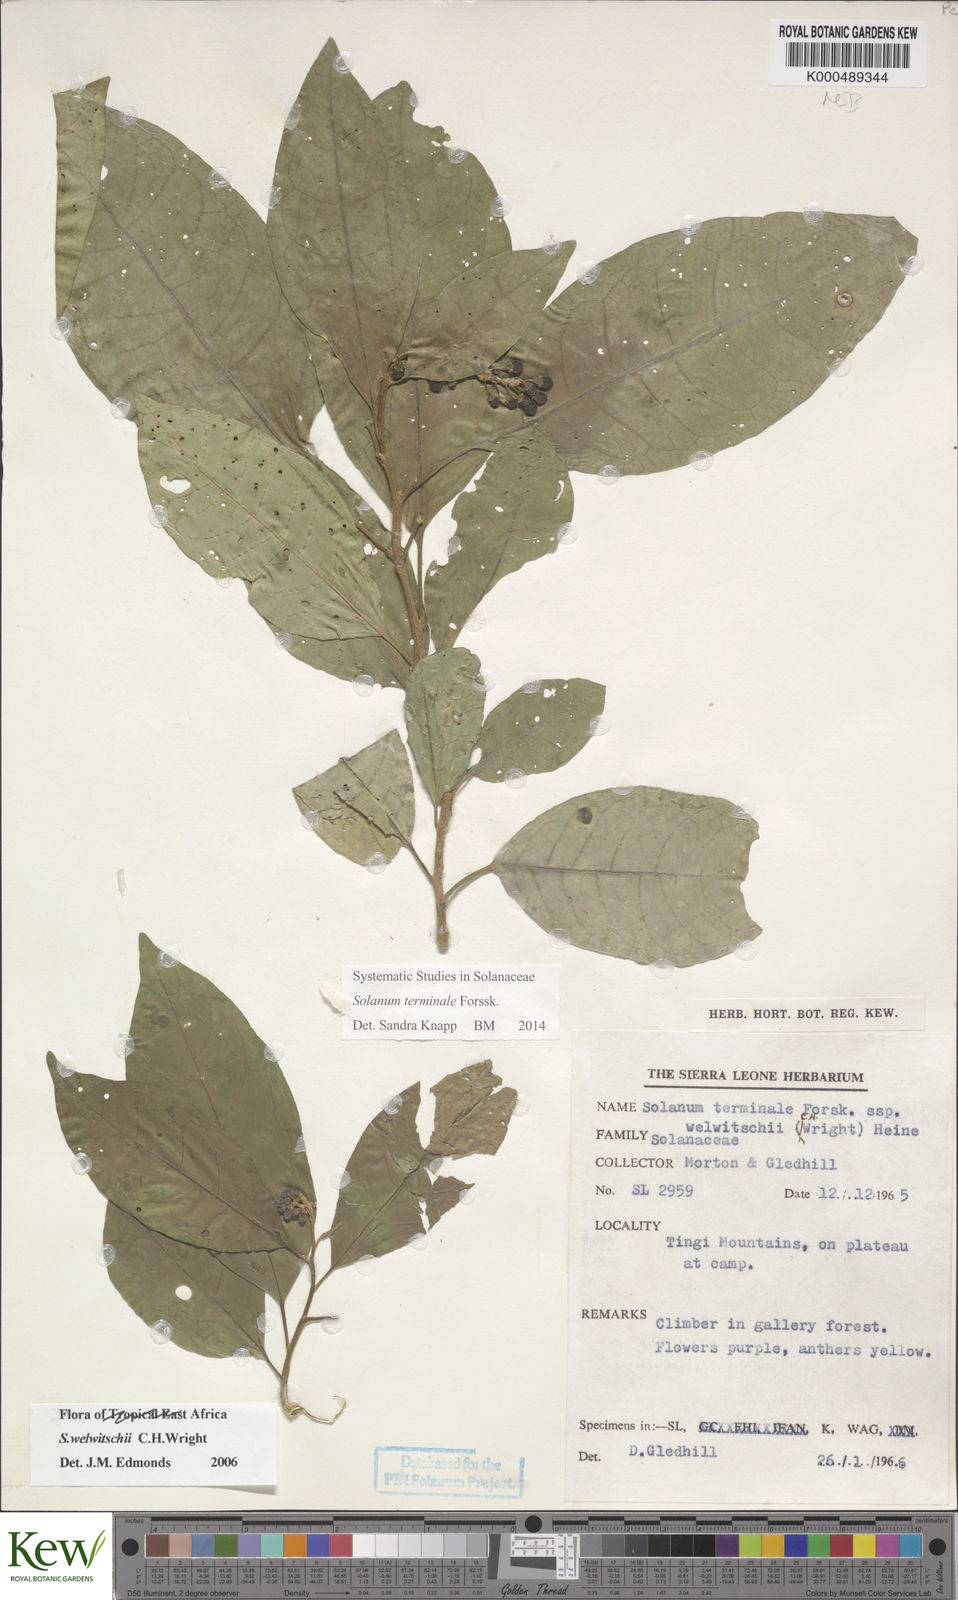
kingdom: Plantae
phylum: Tracheophyta
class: Magnoliopsida
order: Solanales
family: Solanaceae
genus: Solanum
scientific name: Solanum terminale
